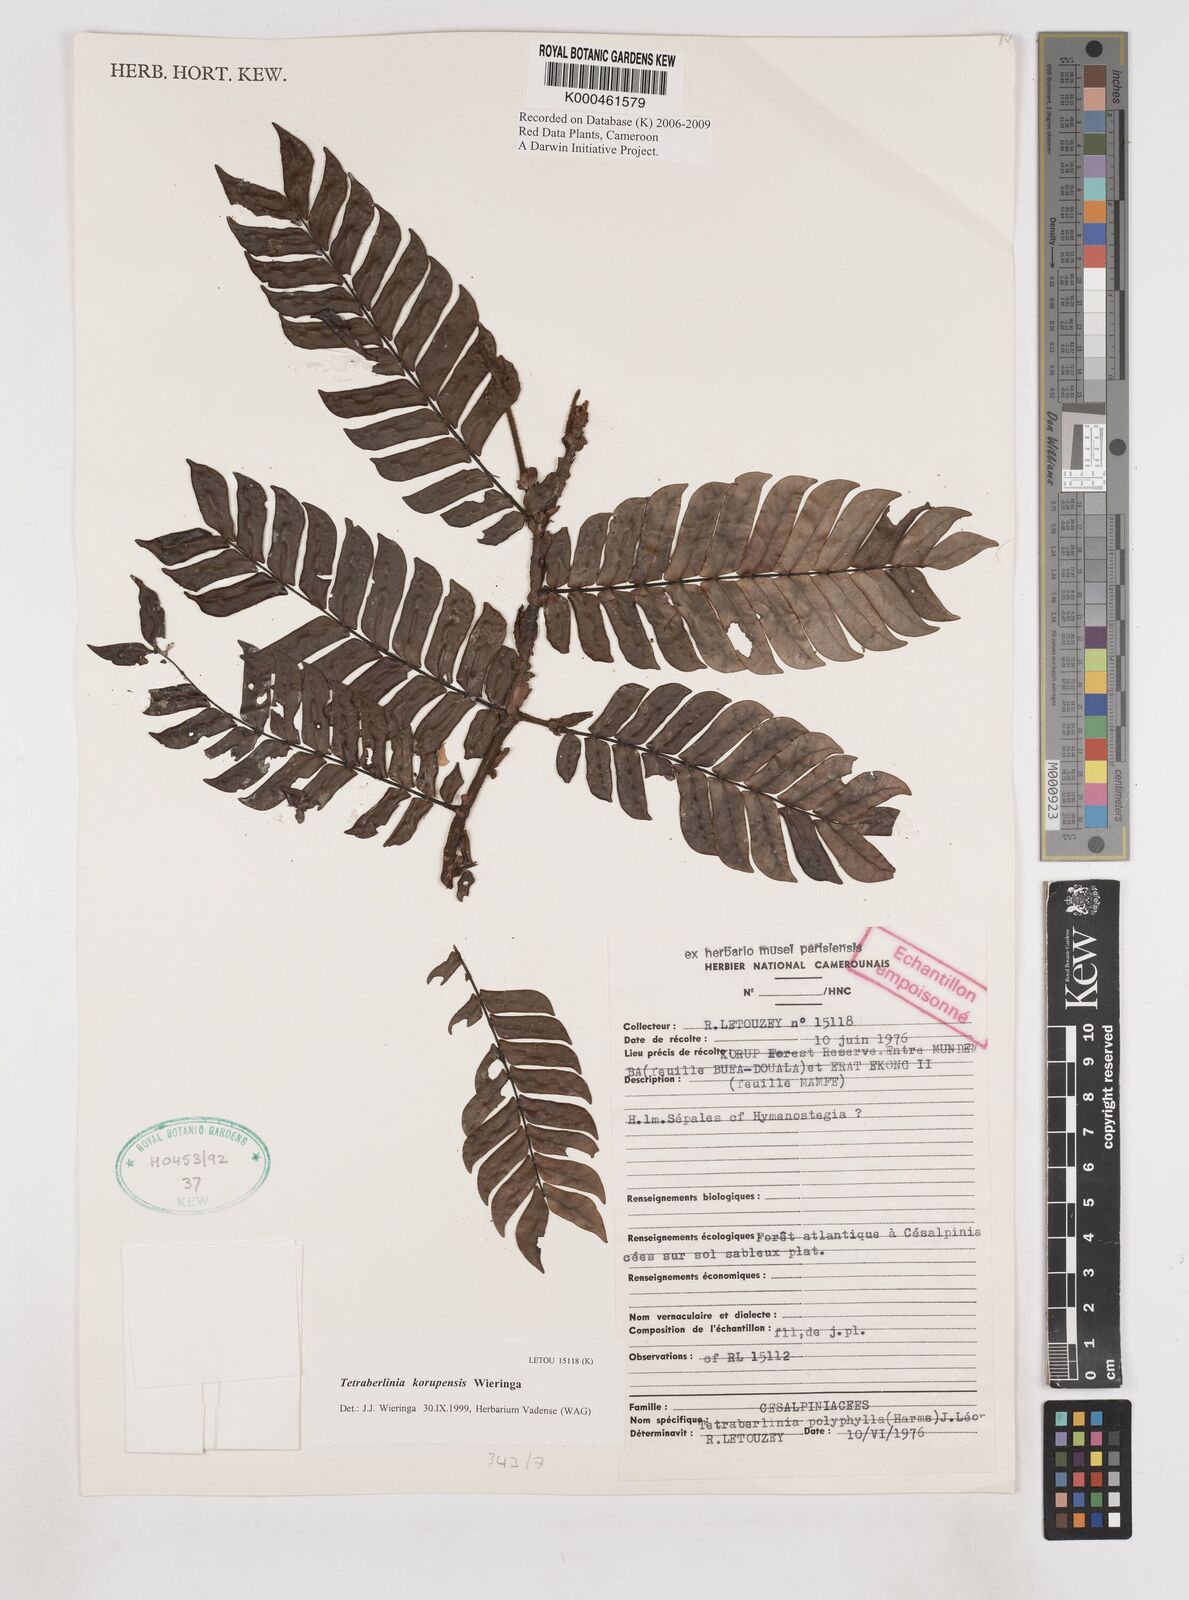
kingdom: Plantae
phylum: Tracheophyta
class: Magnoliopsida
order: Fabales
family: Fabaceae
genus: Tetraberlinia
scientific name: Tetraberlinia korupensis
